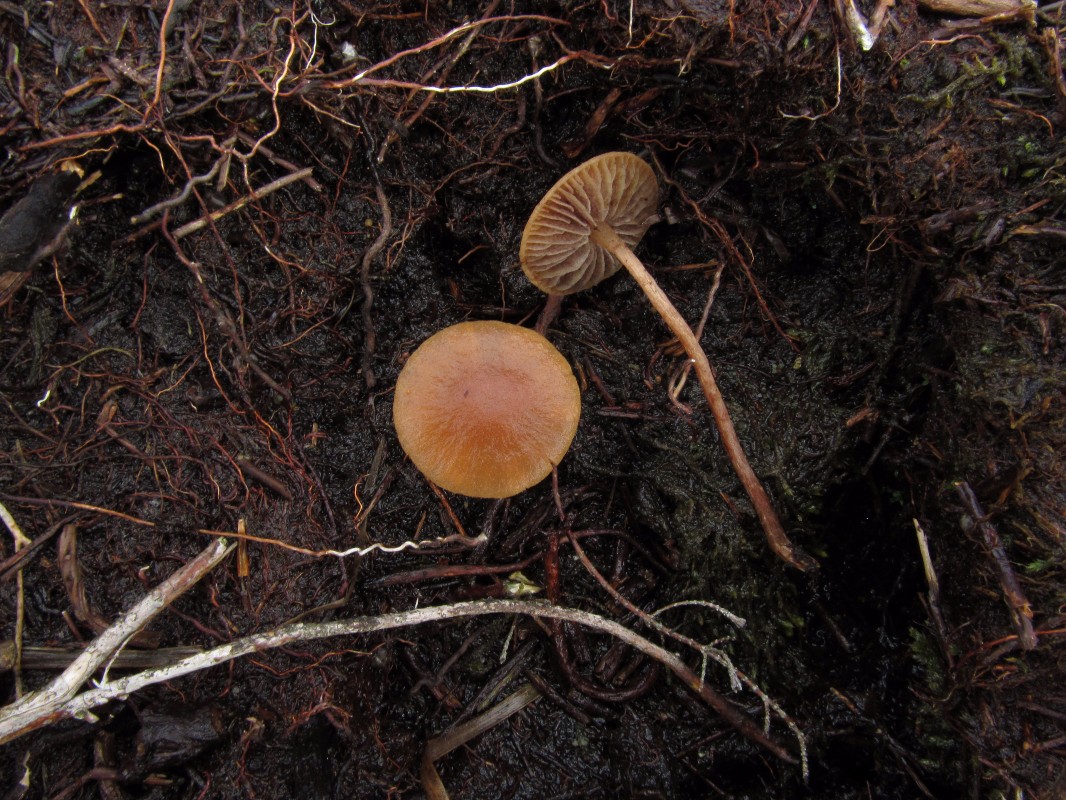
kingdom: Fungi
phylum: Basidiomycota
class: Agaricomycetes
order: Agaricales
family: Strophariaceae
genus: Hypholoma
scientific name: Hypholoma
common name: svovlhat
